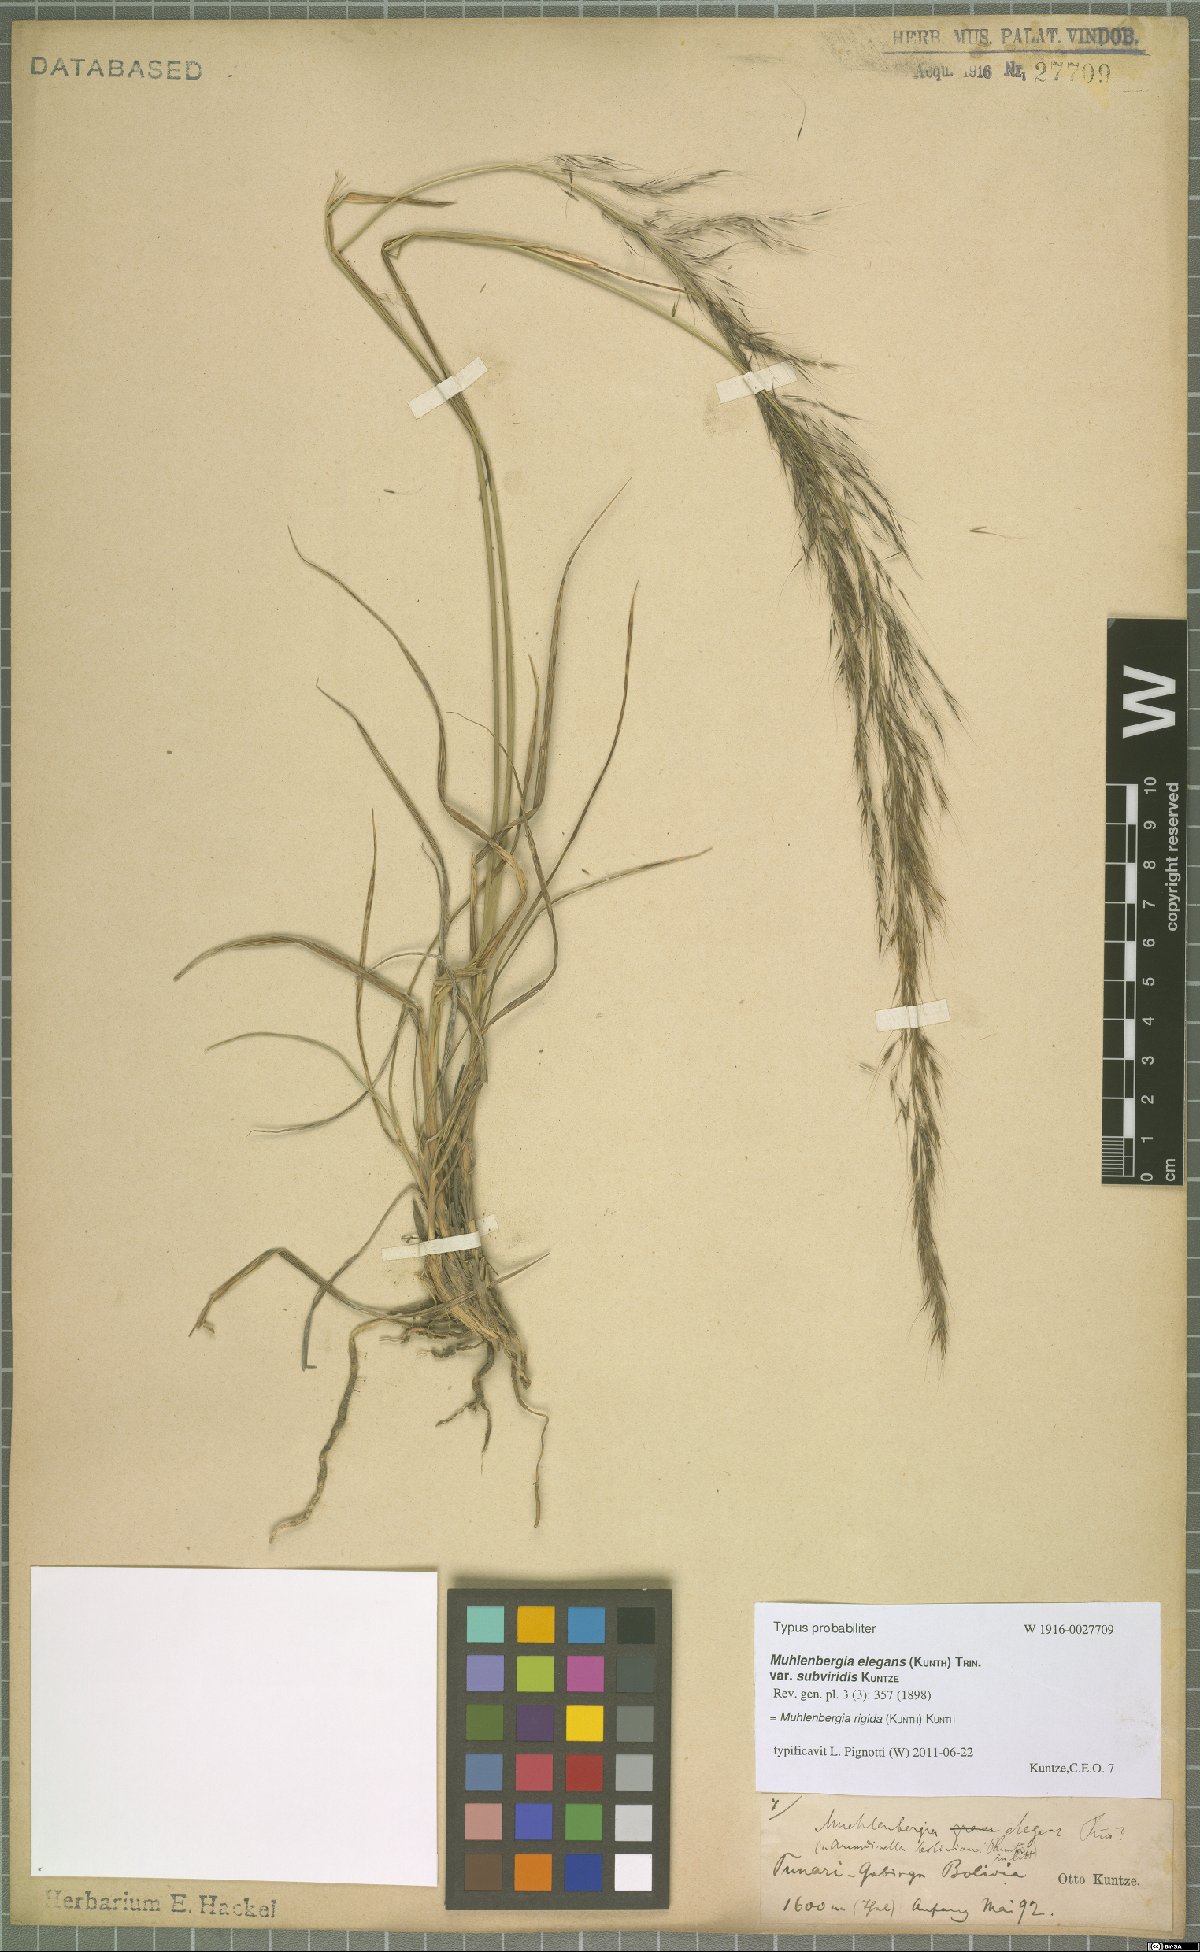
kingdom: Plantae
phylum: Tracheophyta
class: Liliopsida
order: Poales
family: Poaceae
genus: Muhlenbergia
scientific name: Muhlenbergia rigida
